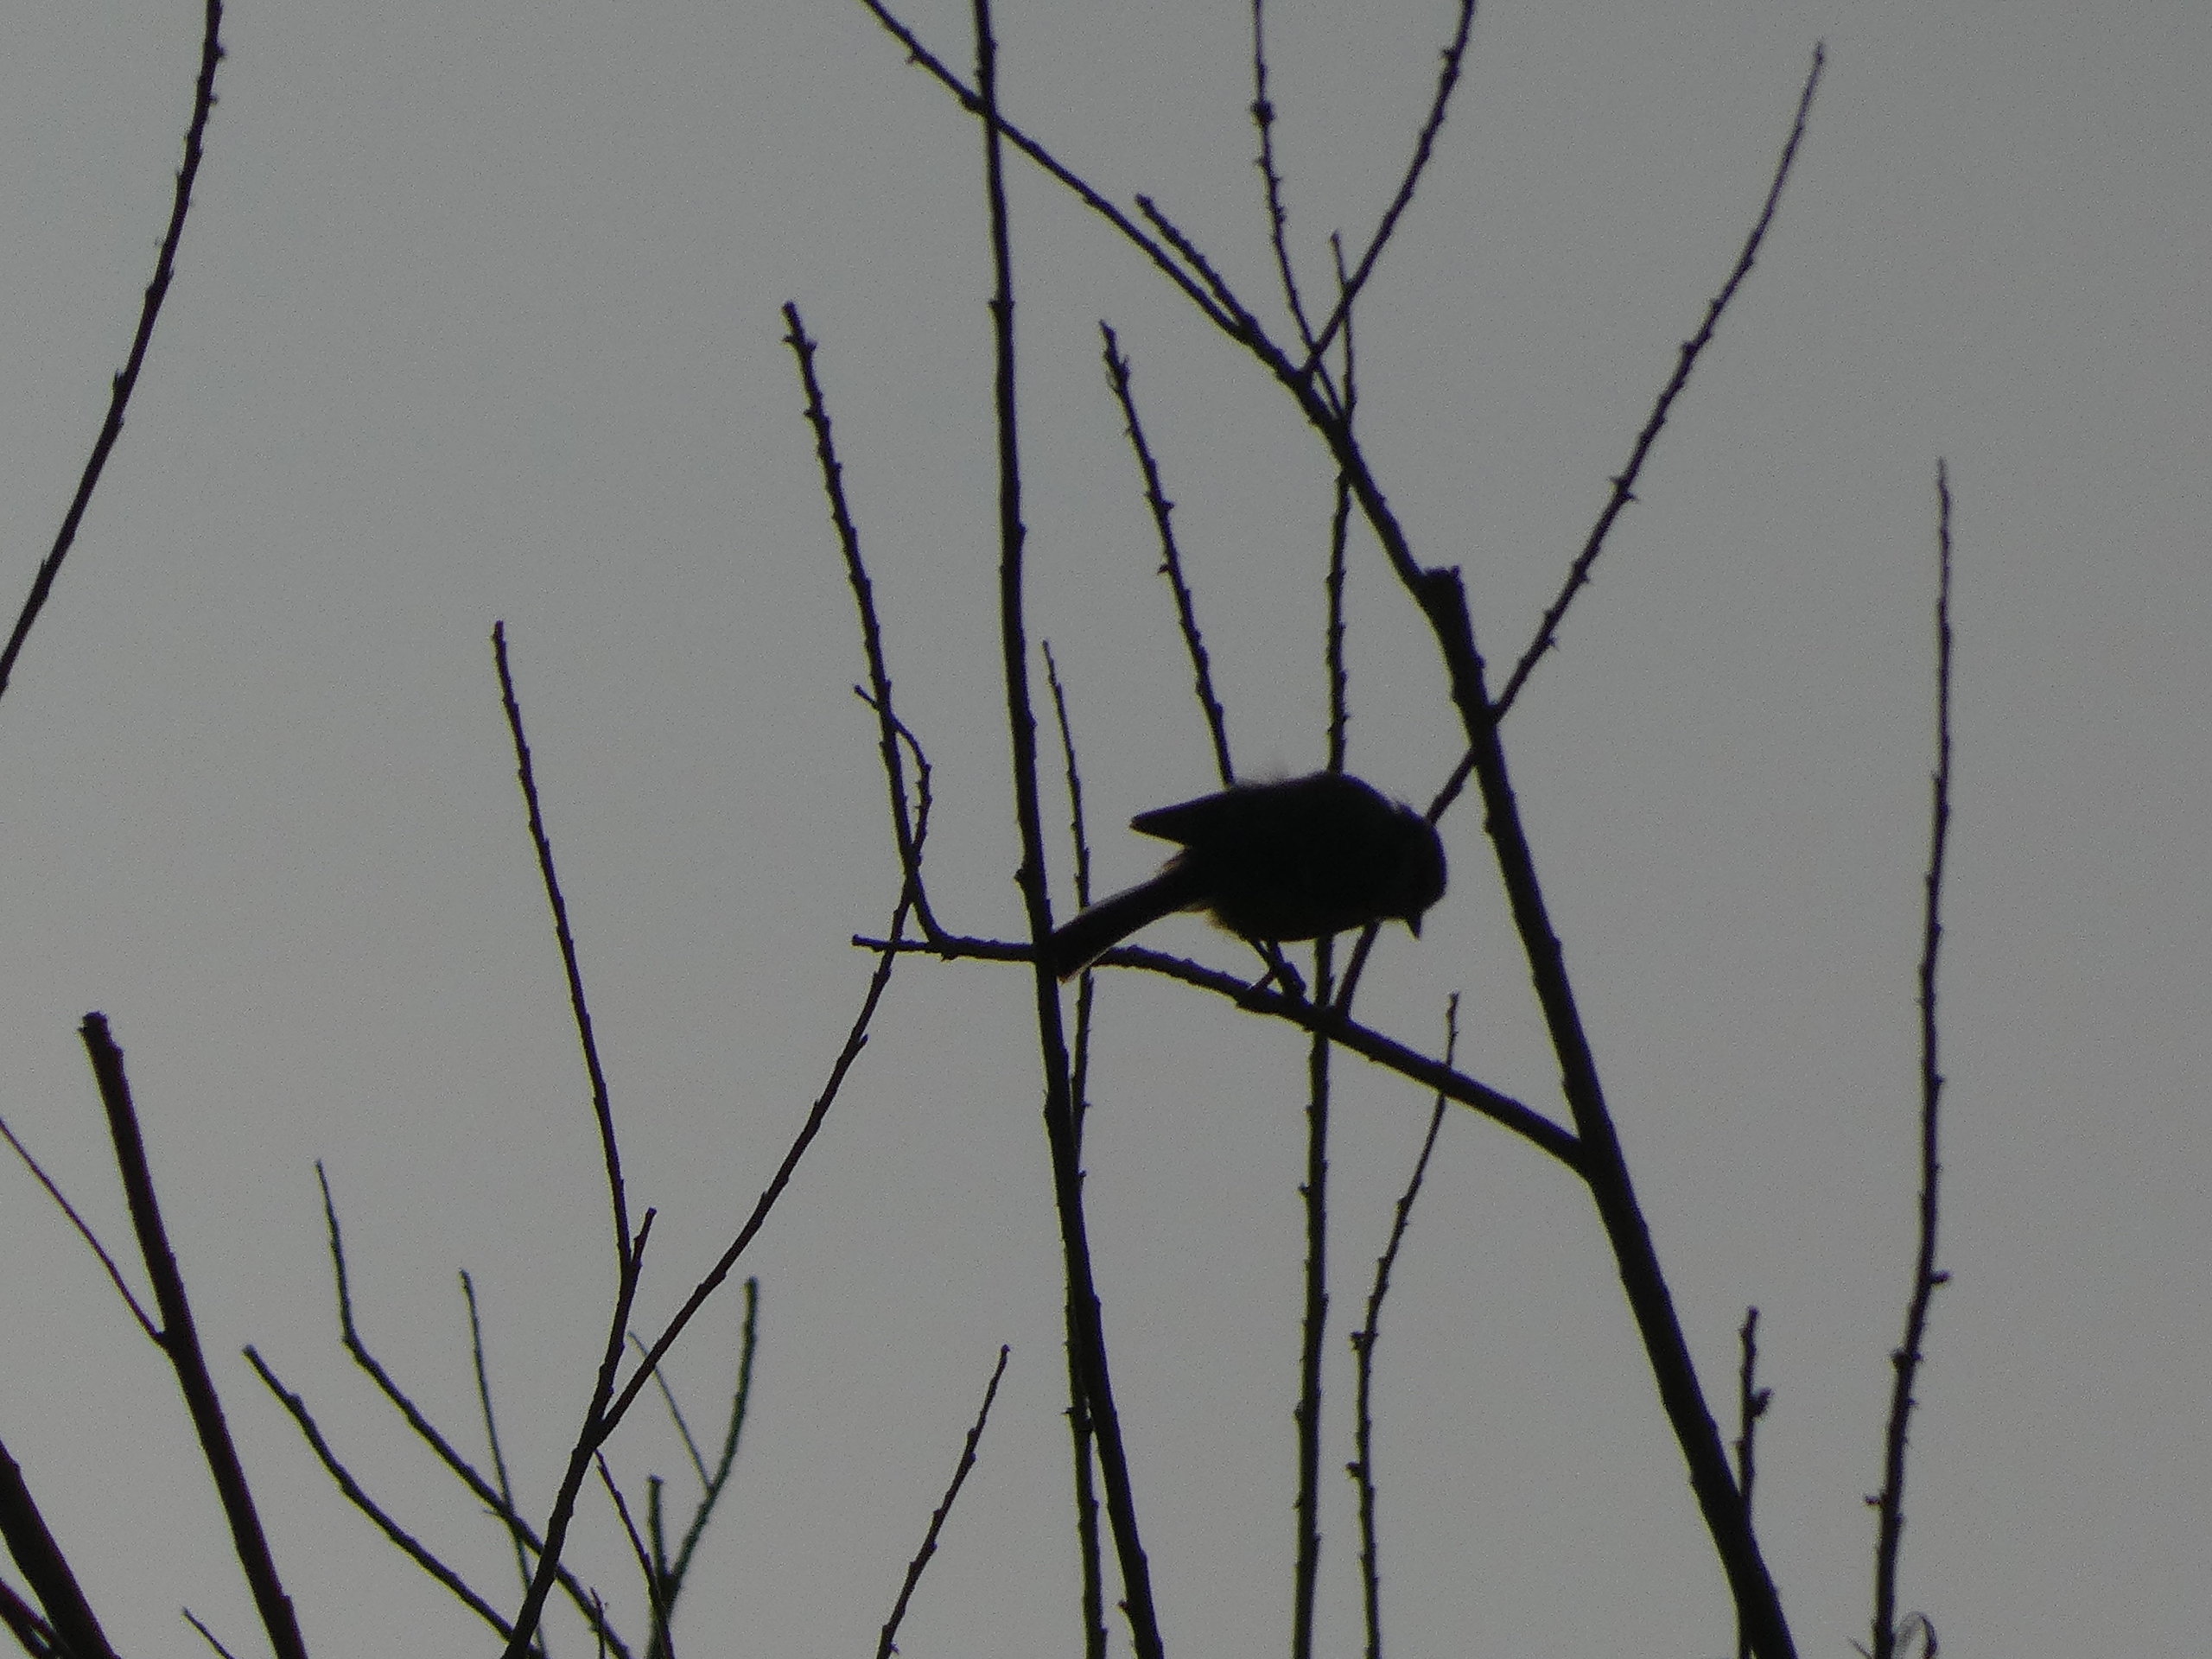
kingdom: Animalia
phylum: Chordata
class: Aves
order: Passeriformes
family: Paridae
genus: Cyanistes
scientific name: Cyanistes caeruleus
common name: Blåmejse
